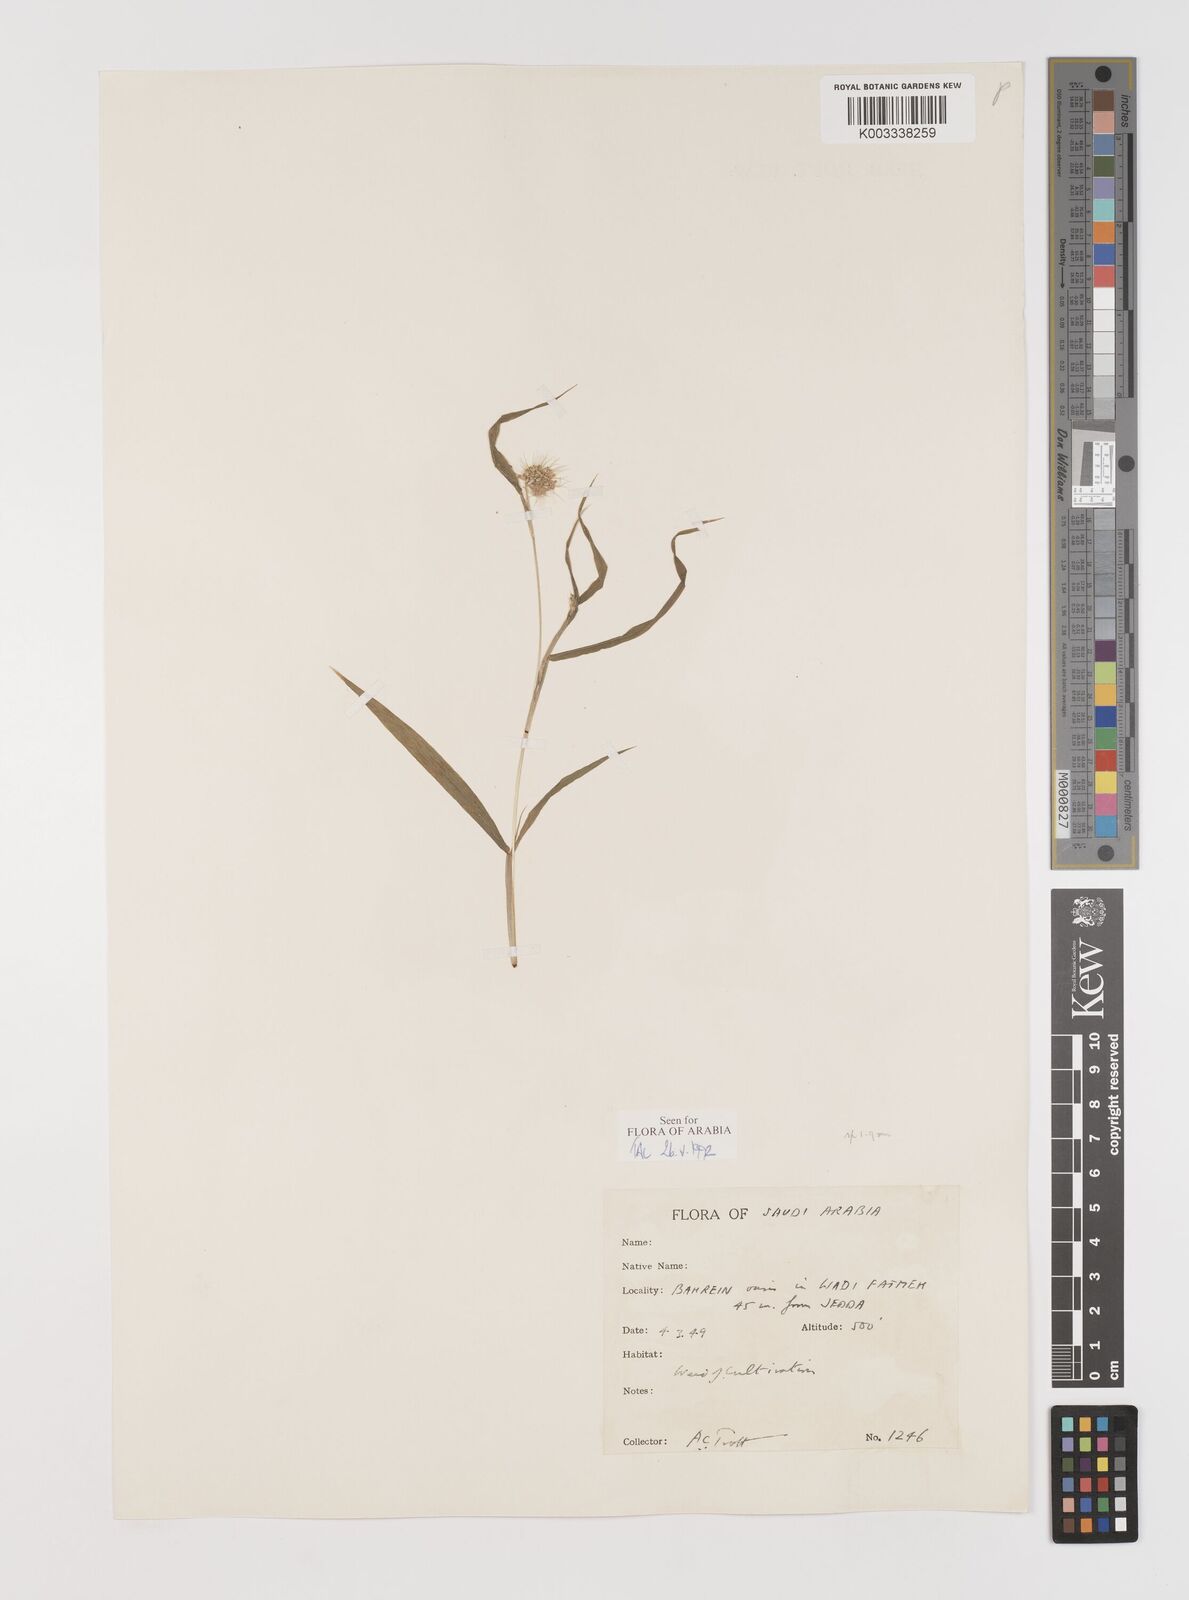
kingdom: Plantae
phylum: Tracheophyta
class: Liliopsida
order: Poales
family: Poaceae
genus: Setaria
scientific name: Setaria verticillata
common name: Hooked bristlegrass
